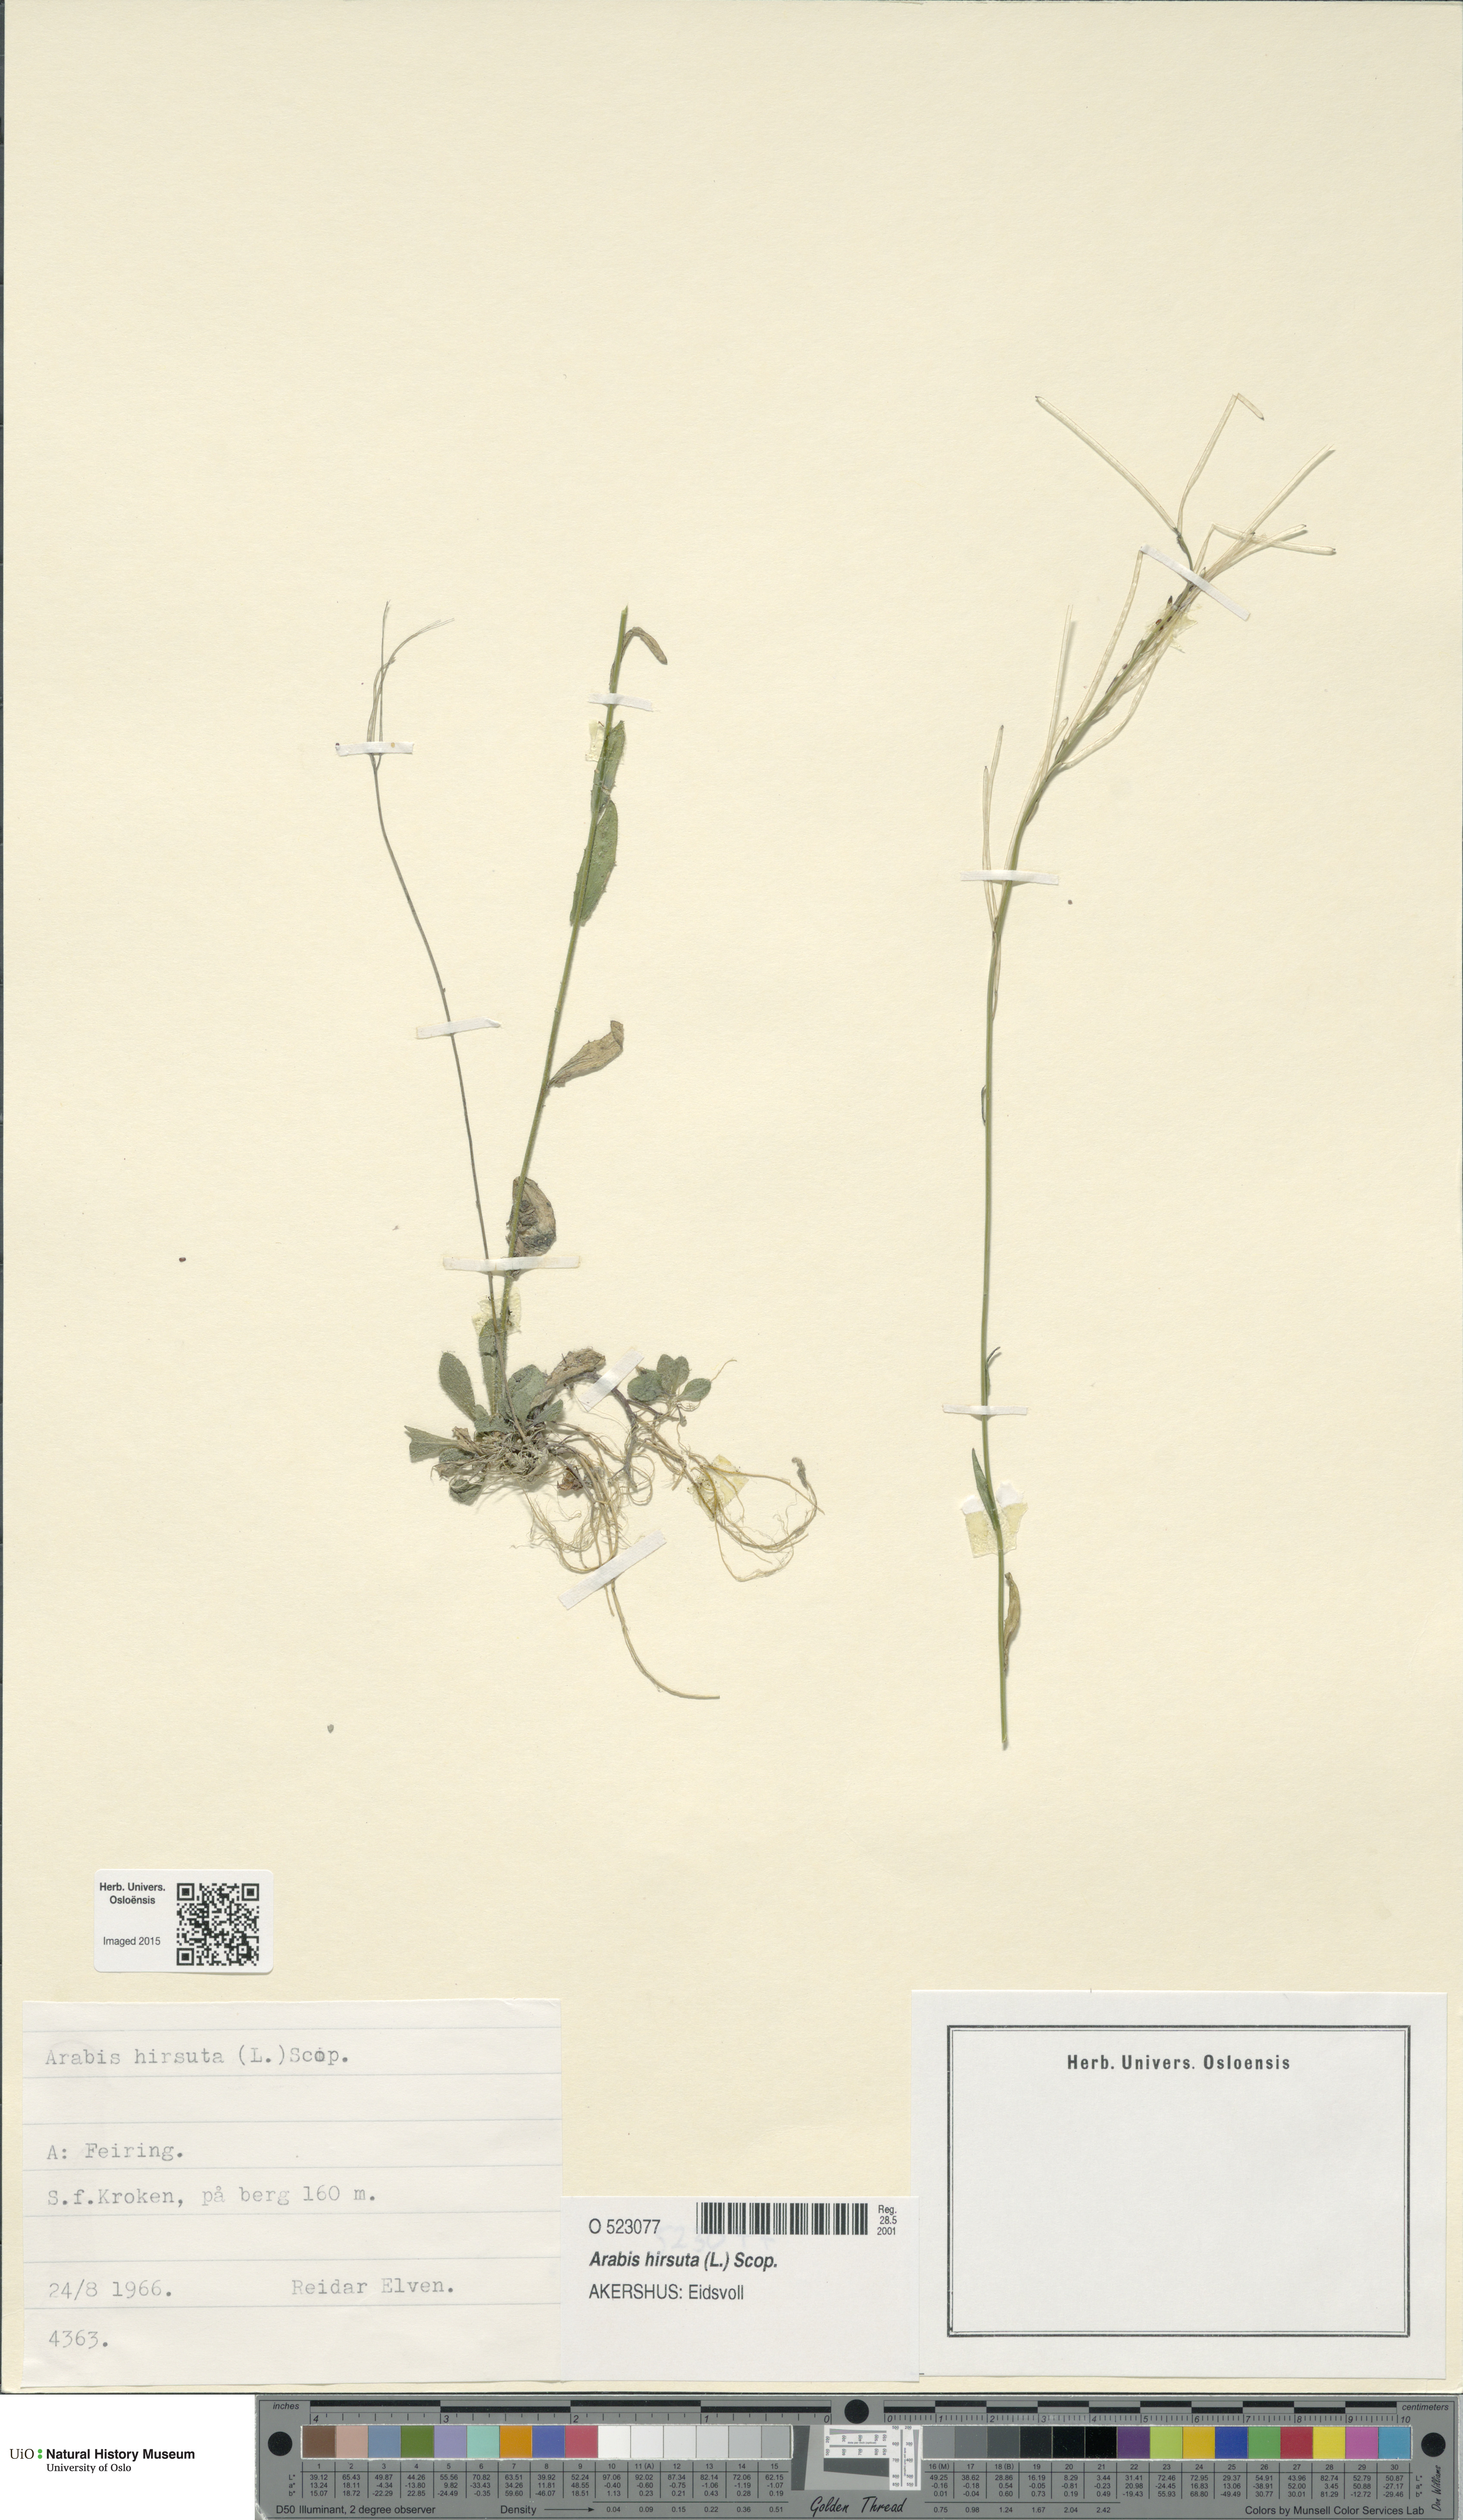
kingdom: Plantae
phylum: Tracheophyta
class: Magnoliopsida
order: Brassicales
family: Brassicaceae
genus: Arabis
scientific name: Arabis hirsuta
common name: Hairy rock-cress
